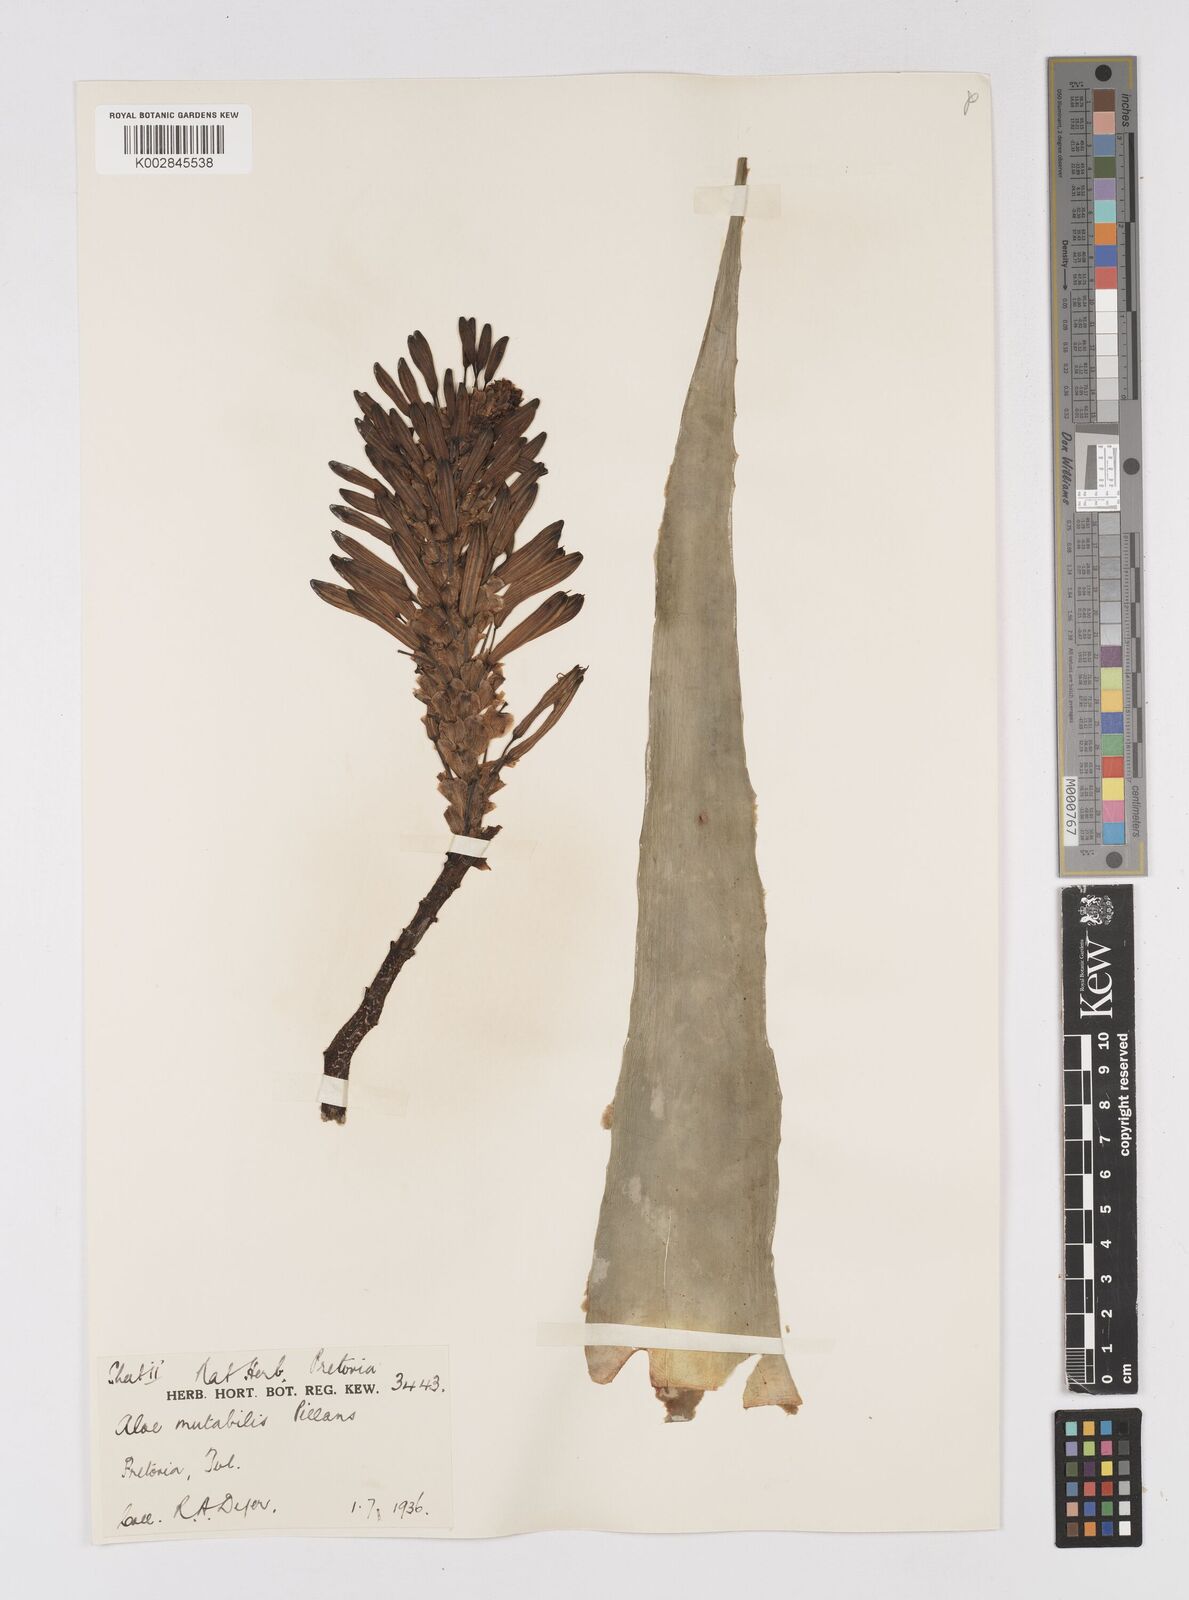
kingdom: Plantae
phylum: Tracheophyta
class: Liliopsida
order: Asparagales
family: Asphodelaceae
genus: Aloe
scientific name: Aloe mutabilis
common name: Blue krantz aloe
